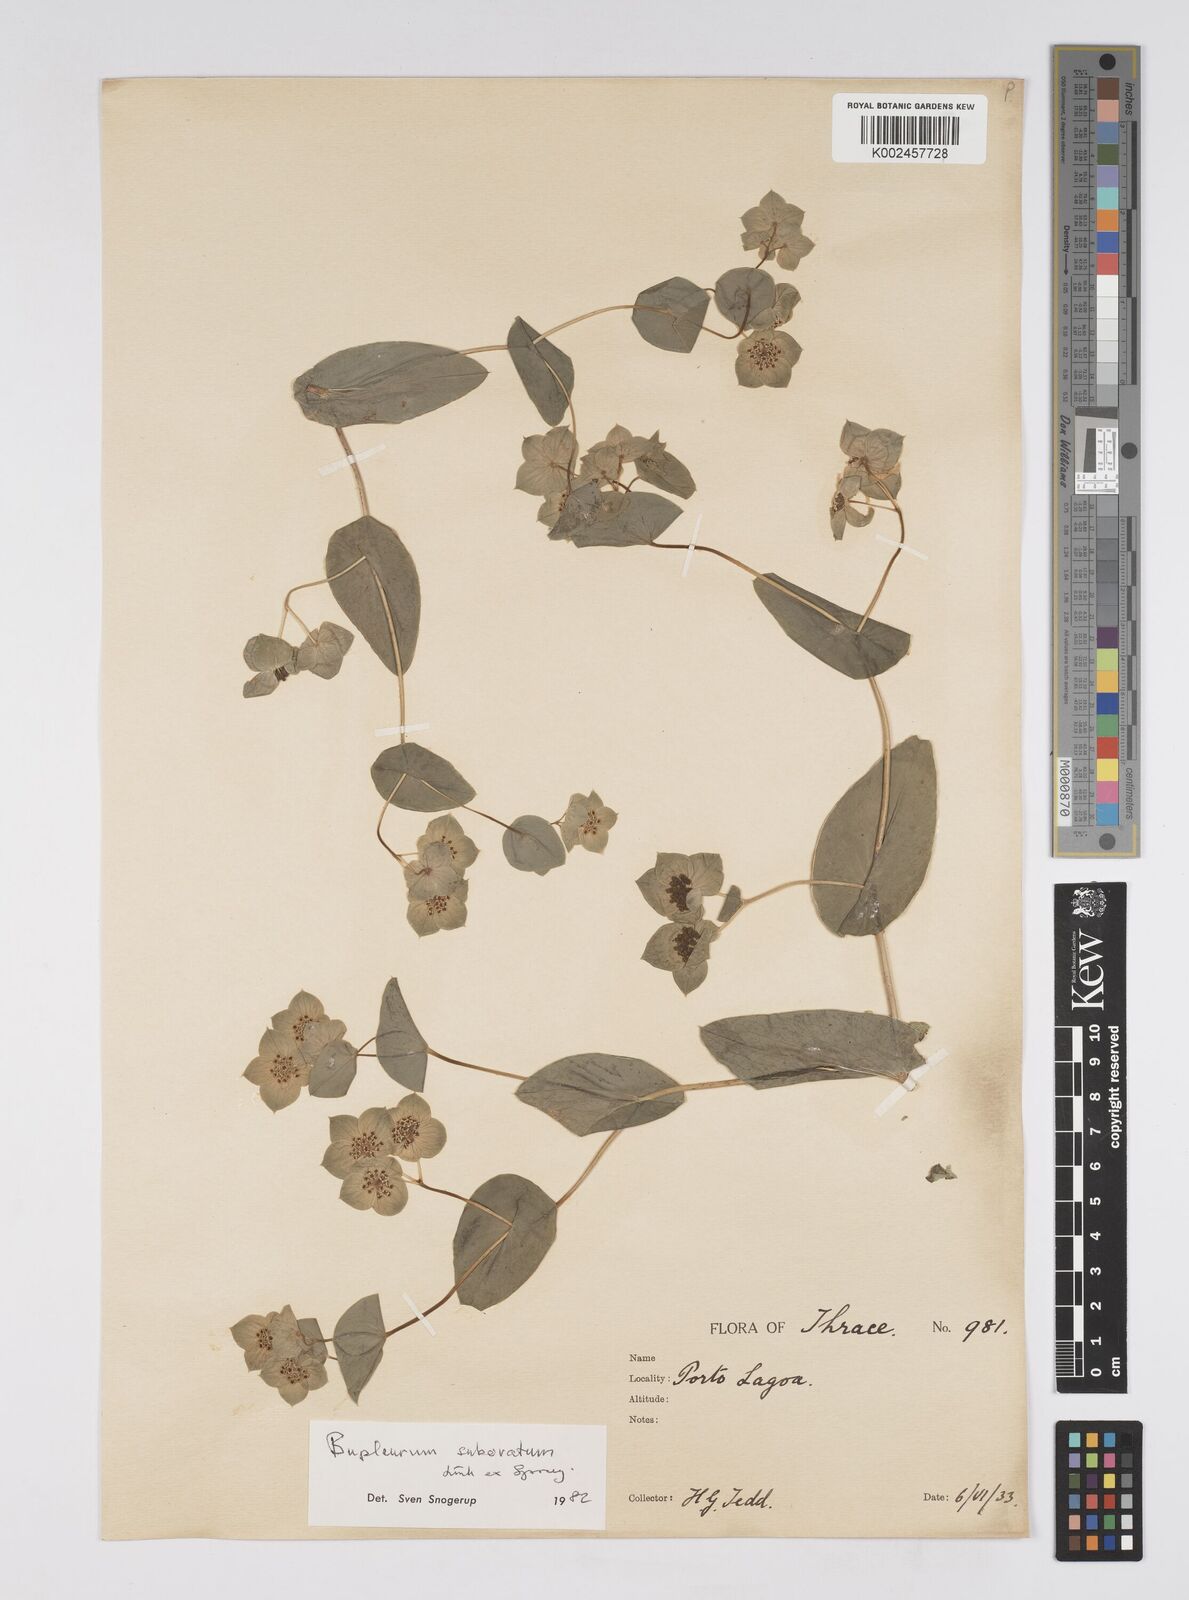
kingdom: Plantae
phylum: Tracheophyta
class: Magnoliopsida
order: Apiales
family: Apiaceae
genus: Bupleurum
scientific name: Bupleurum subovatum
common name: False thorow-wax
